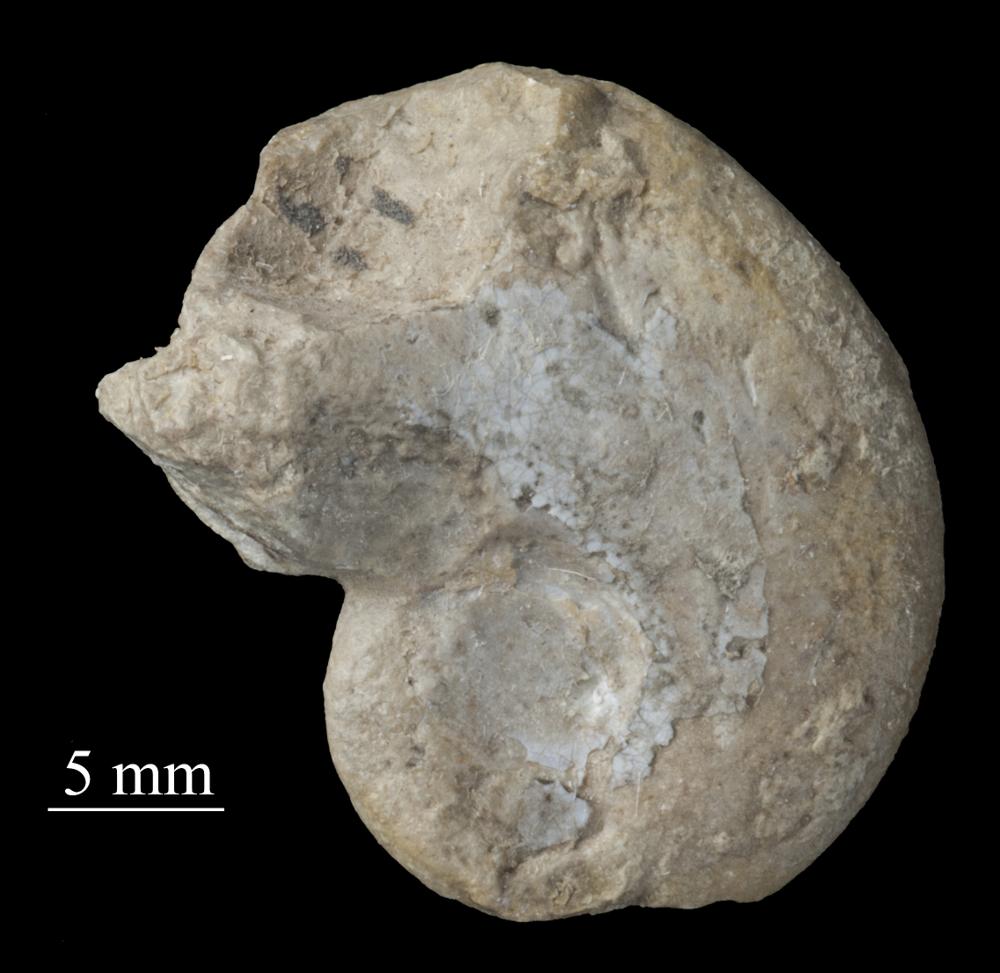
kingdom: Animalia
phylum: Mollusca
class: Gastropoda
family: Bellerophontidae
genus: Bellerophon
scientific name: Bellerophon
